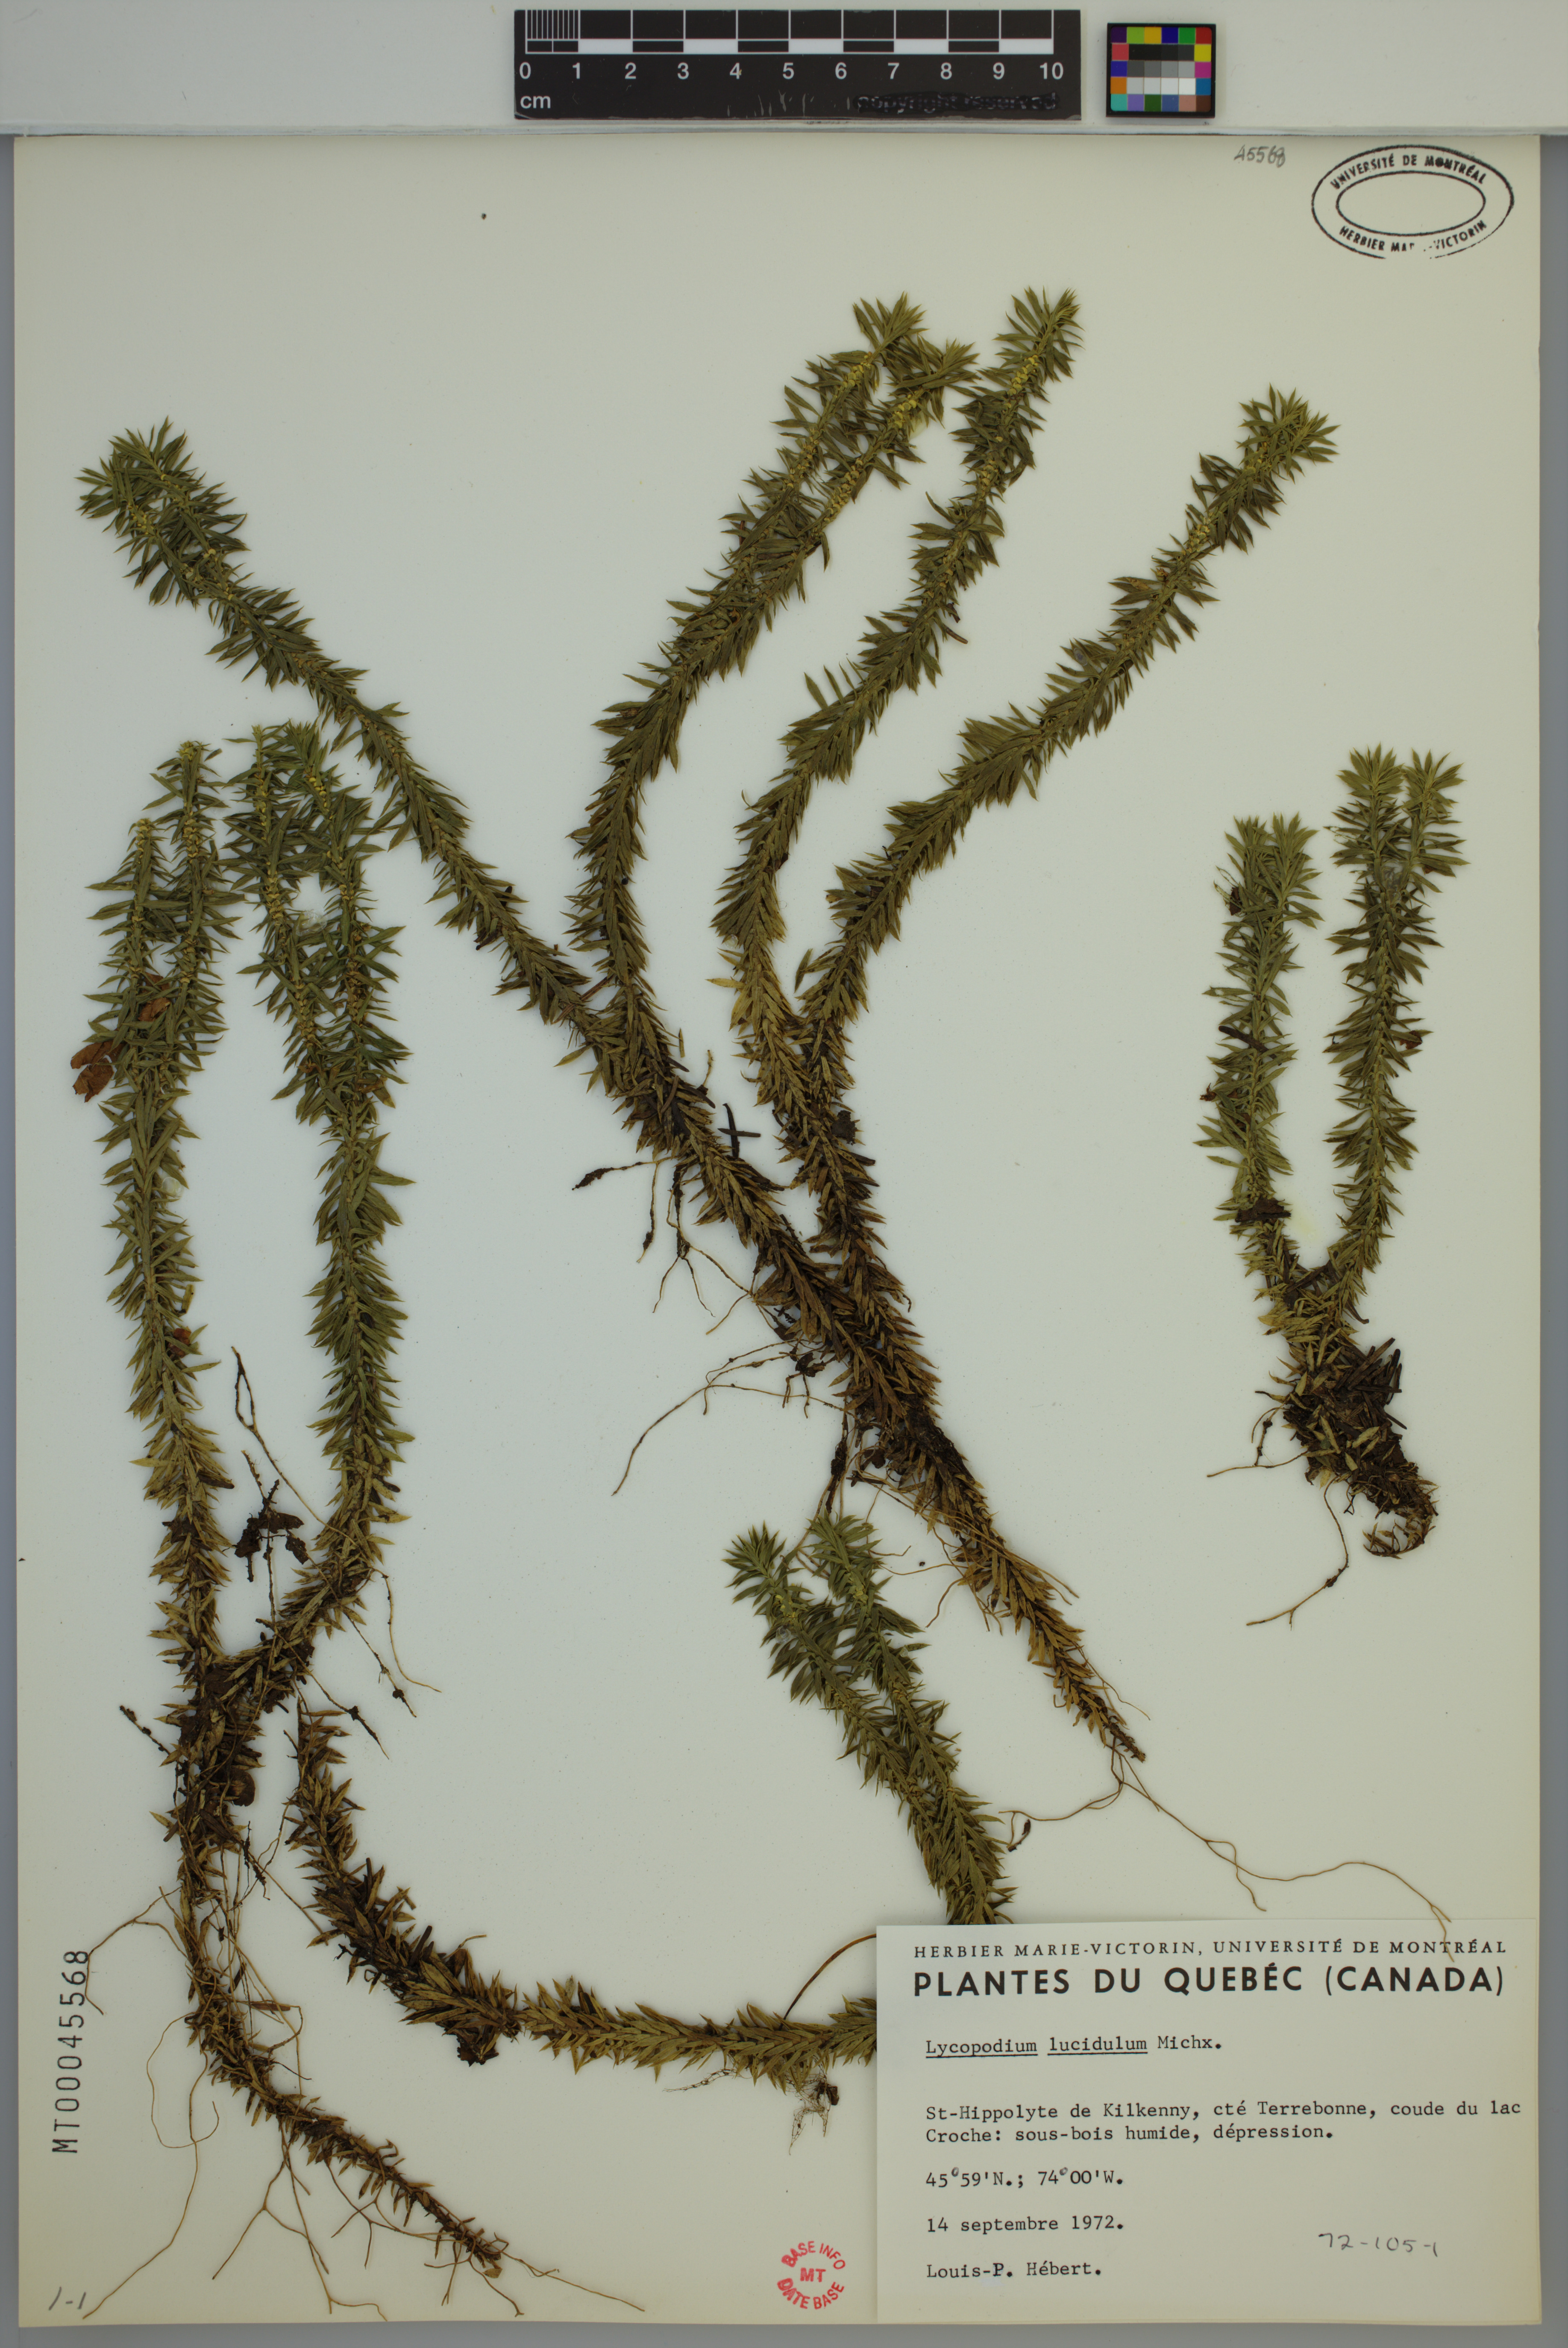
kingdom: Plantae
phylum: Tracheophyta
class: Lycopodiopsida
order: Lycopodiales
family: Lycopodiaceae
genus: Huperzia
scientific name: Huperzia lucidula
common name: Shining clubmoss
